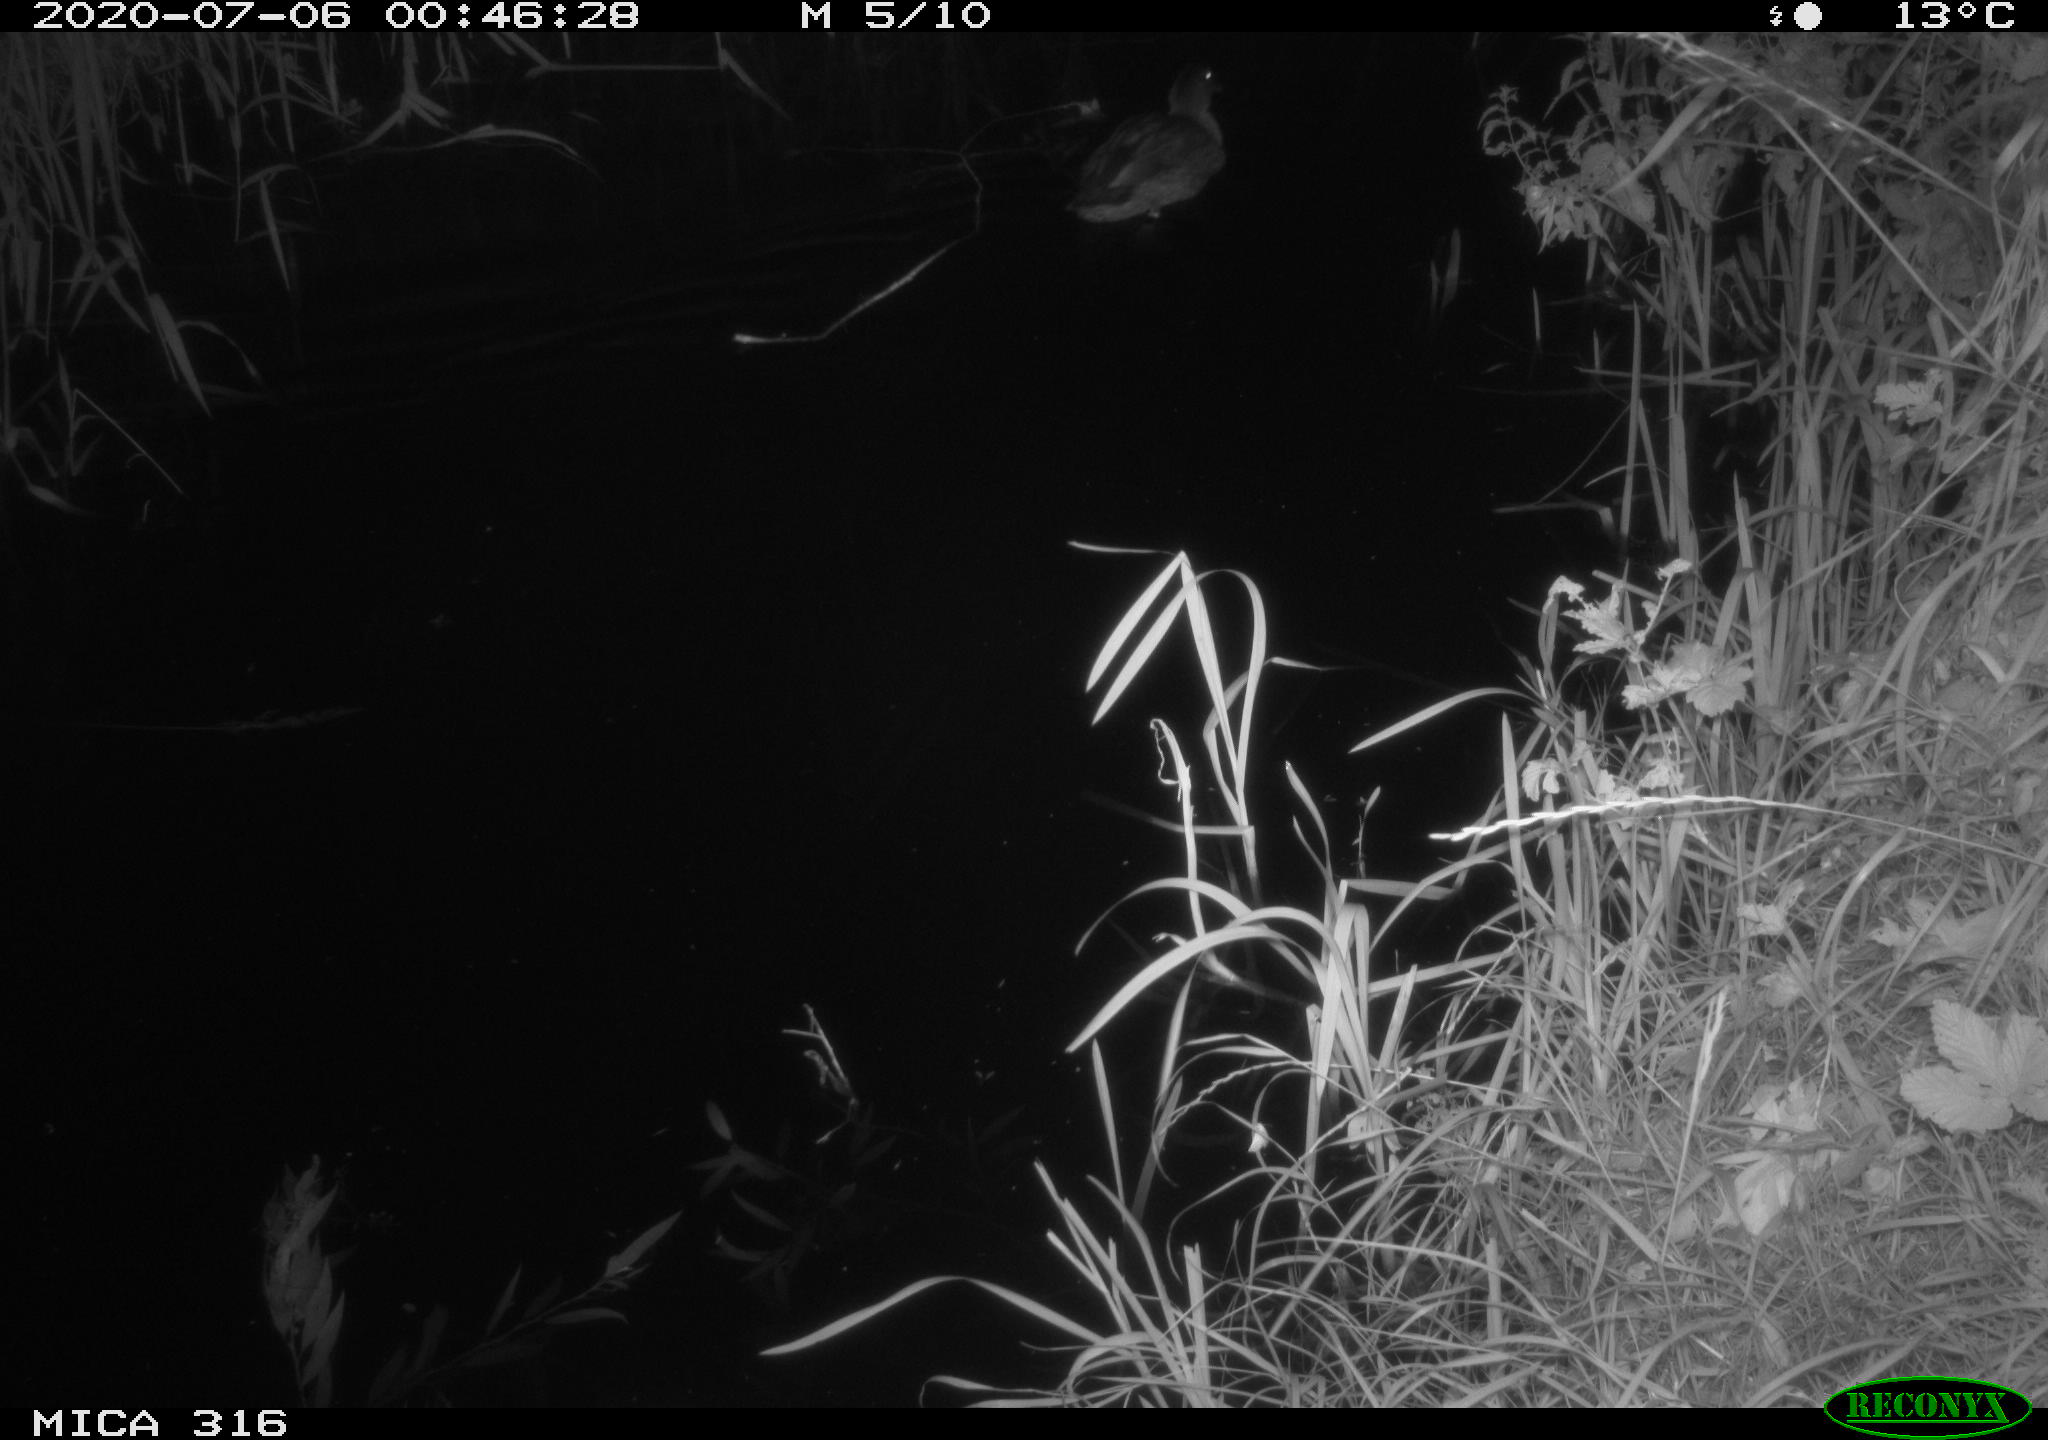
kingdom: Animalia
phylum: Chordata
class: Aves
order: Anseriformes
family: Anatidae
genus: Anas
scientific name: Anas platyrhynchos
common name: Mallard
